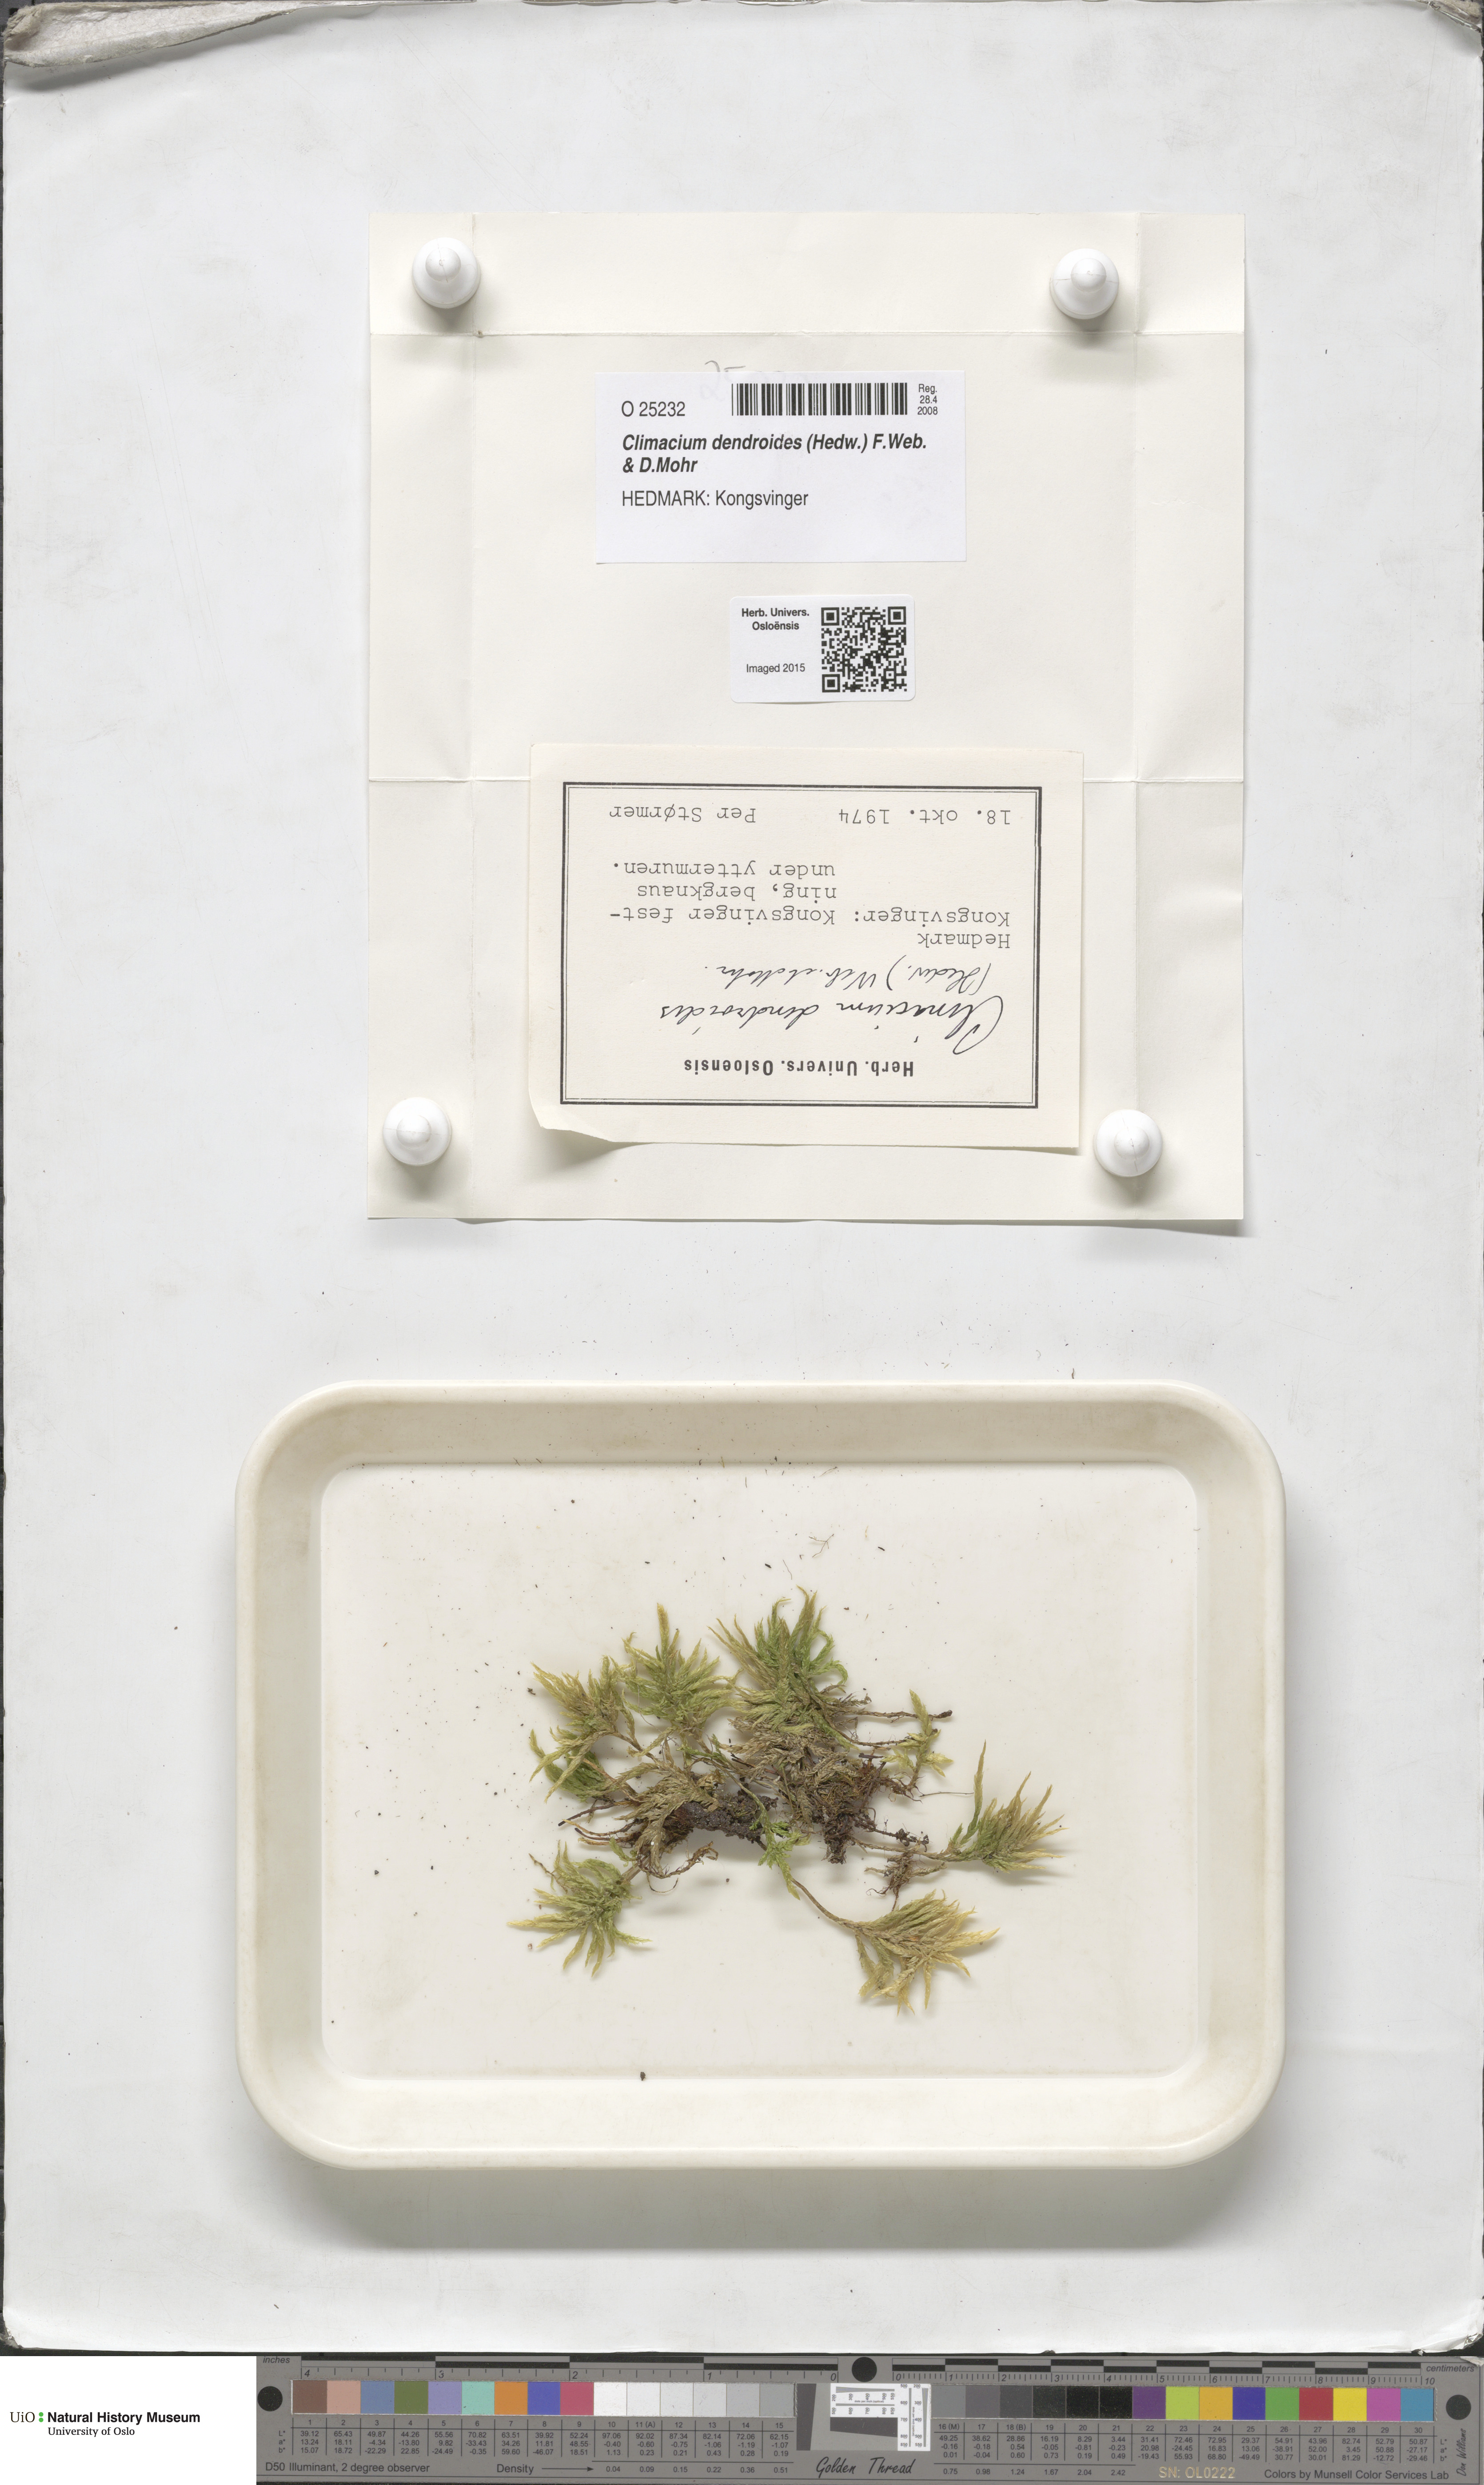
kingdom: Plantae
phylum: Bryophyta
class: Bryopsida
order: Hypnales
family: Climaciaceae
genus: Climacium
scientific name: Climacium dendroides
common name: Northern tree moss
